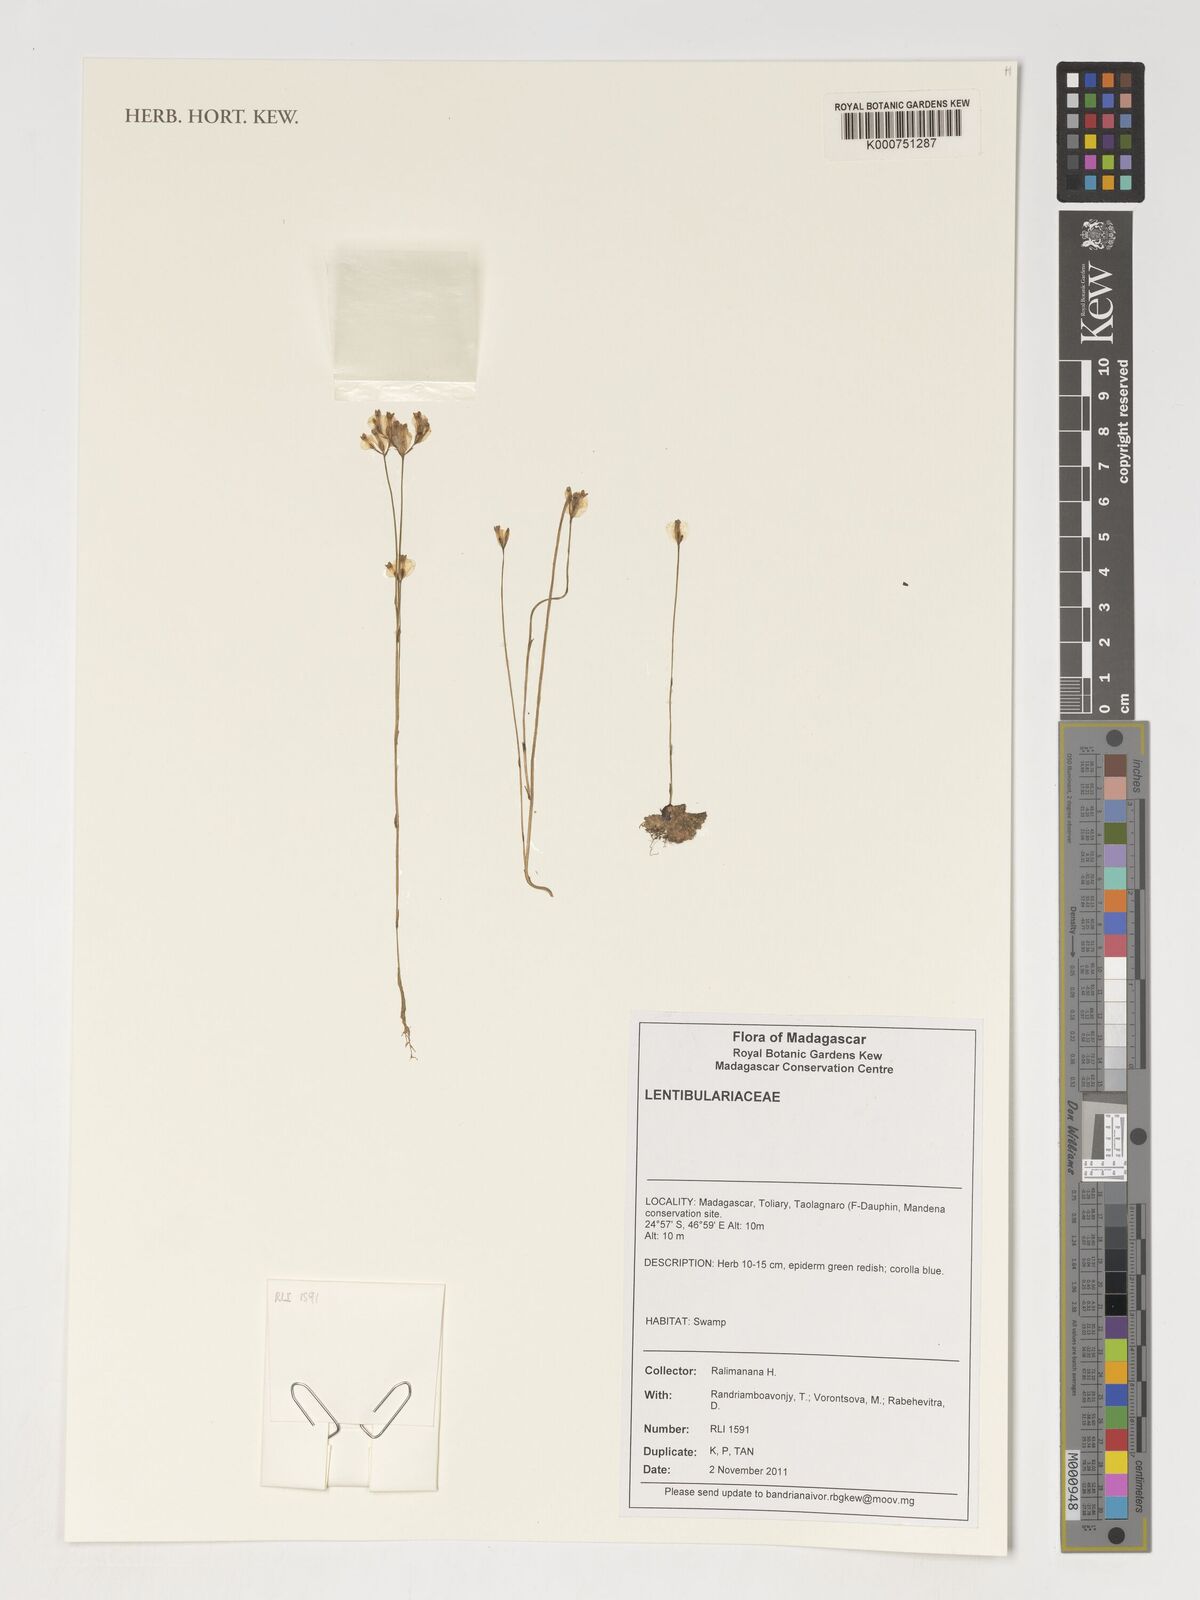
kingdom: Plantae
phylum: Tracheophyta
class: Liliopsida
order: Dioscoreales
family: Burmanniaceae
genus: Burmannia
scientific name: Burmannia madagascariensis
